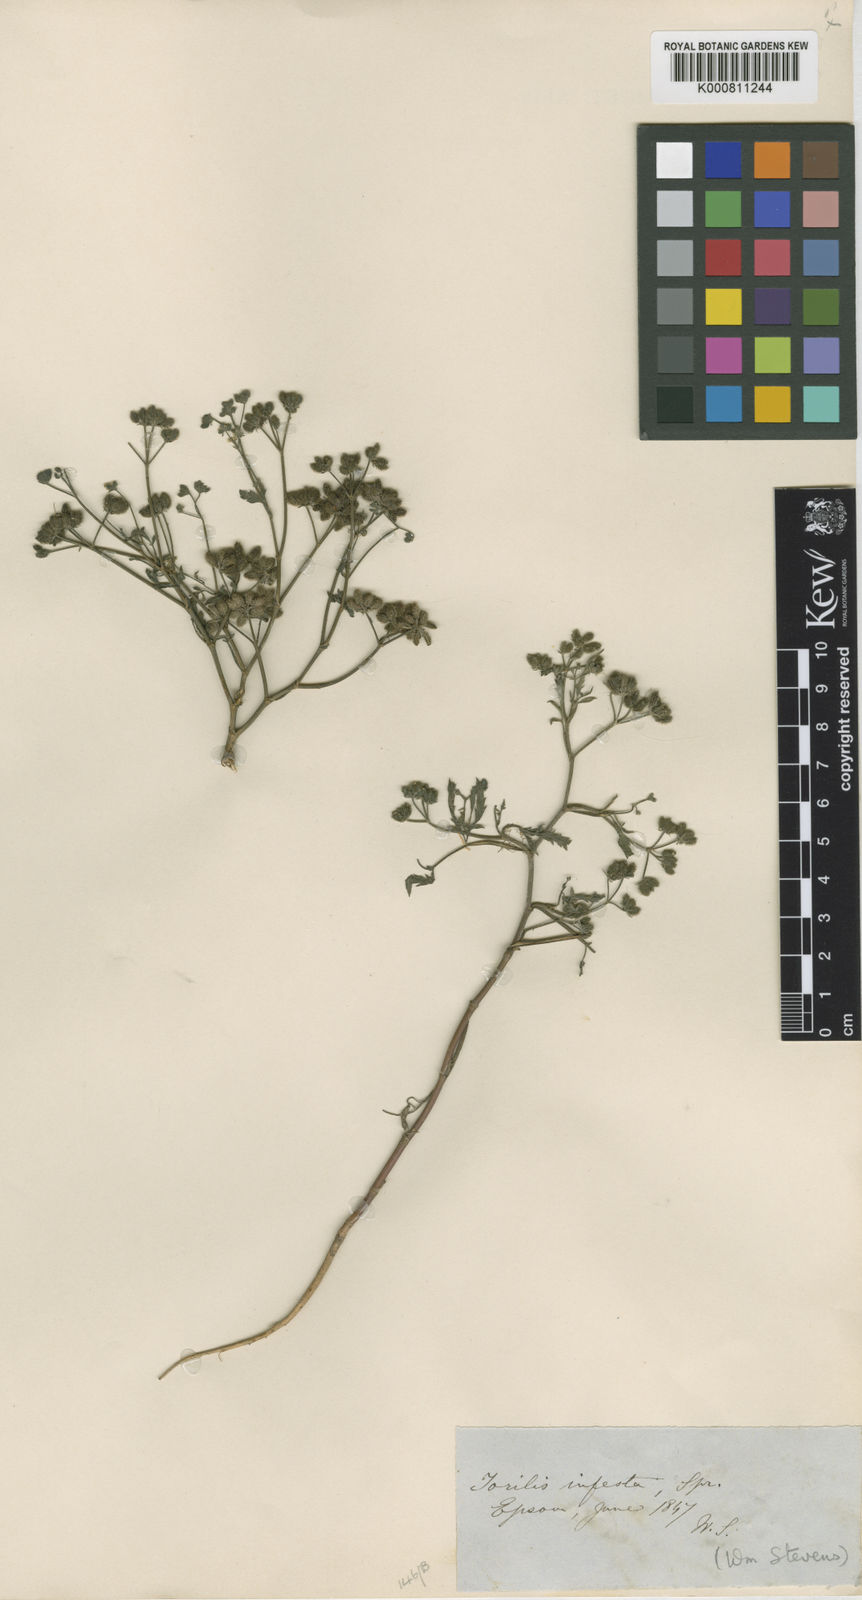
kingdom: Plantae
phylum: Tracheophyta
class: Magnoliopsida
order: Apiales
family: Apiaceae
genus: Torilis
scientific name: Torilis arvensis
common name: Spreading hedge-parsley
